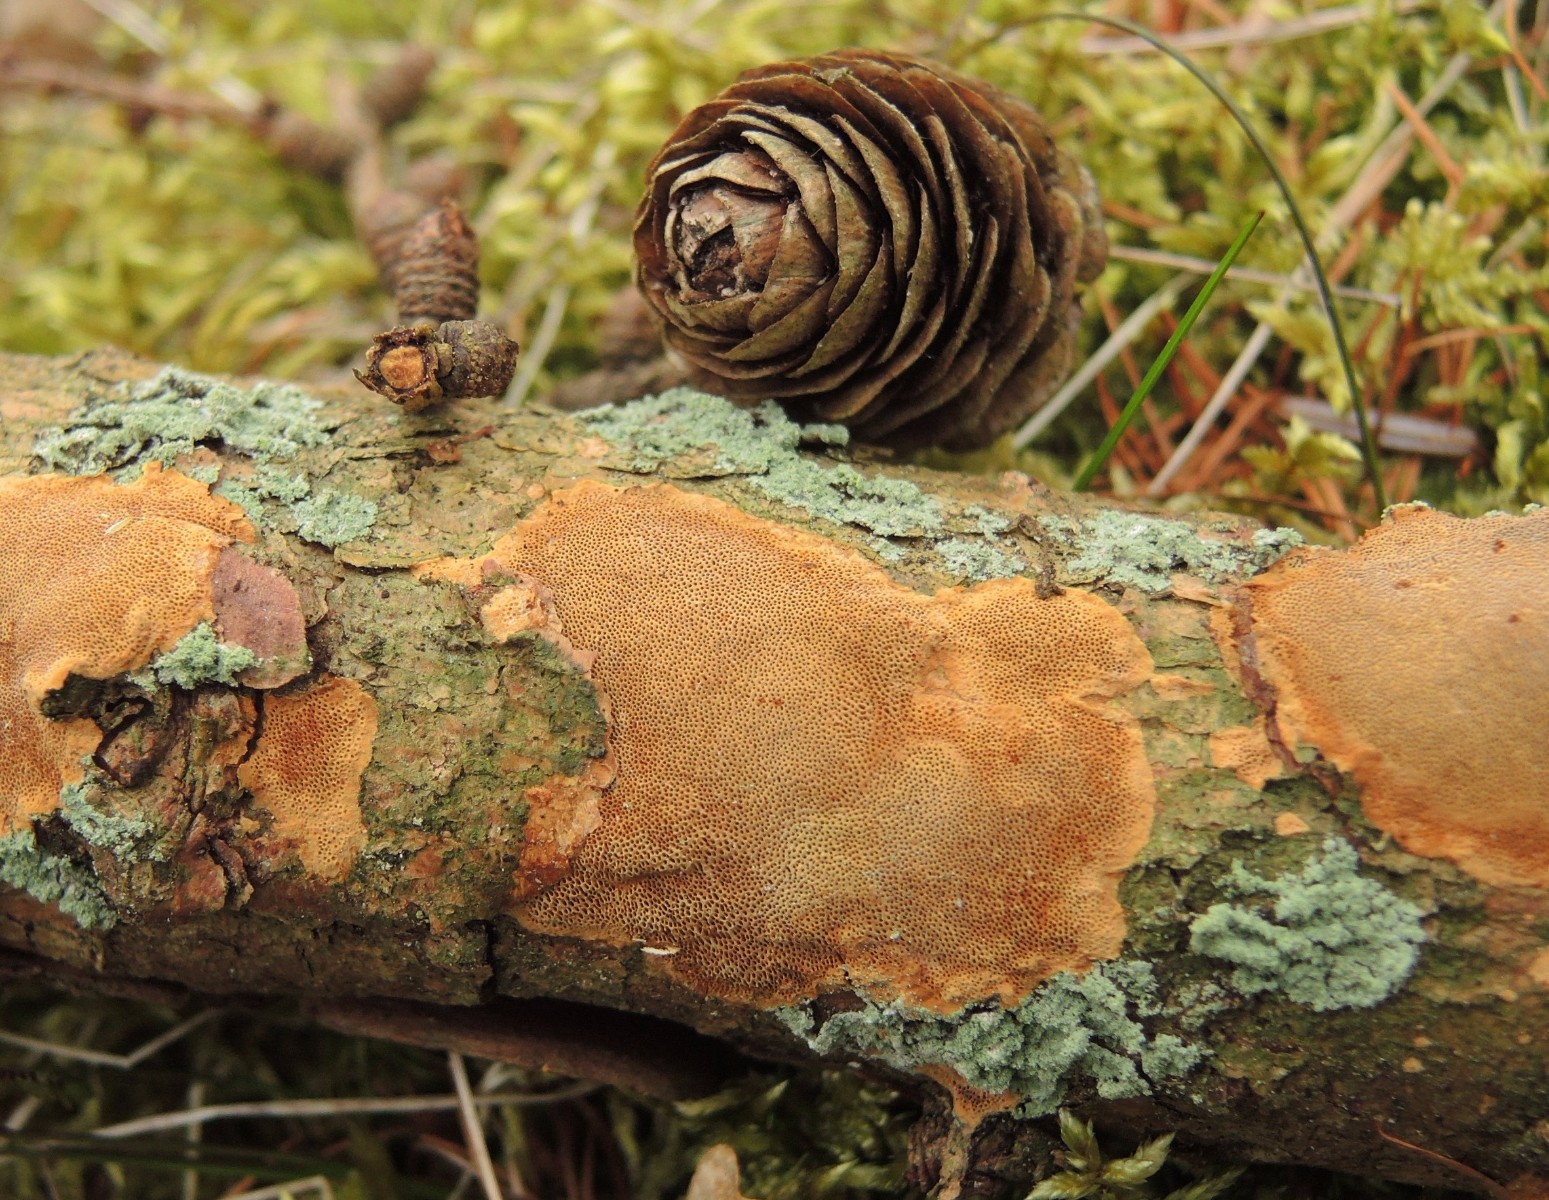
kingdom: Fungi
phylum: Basidiomycota
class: Agaricomycetes
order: Hymenochaetales
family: Hymenochaetaceae
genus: Fuscoporia
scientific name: Fuscoporia ferrea
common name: skorpe-ildporesvamp
